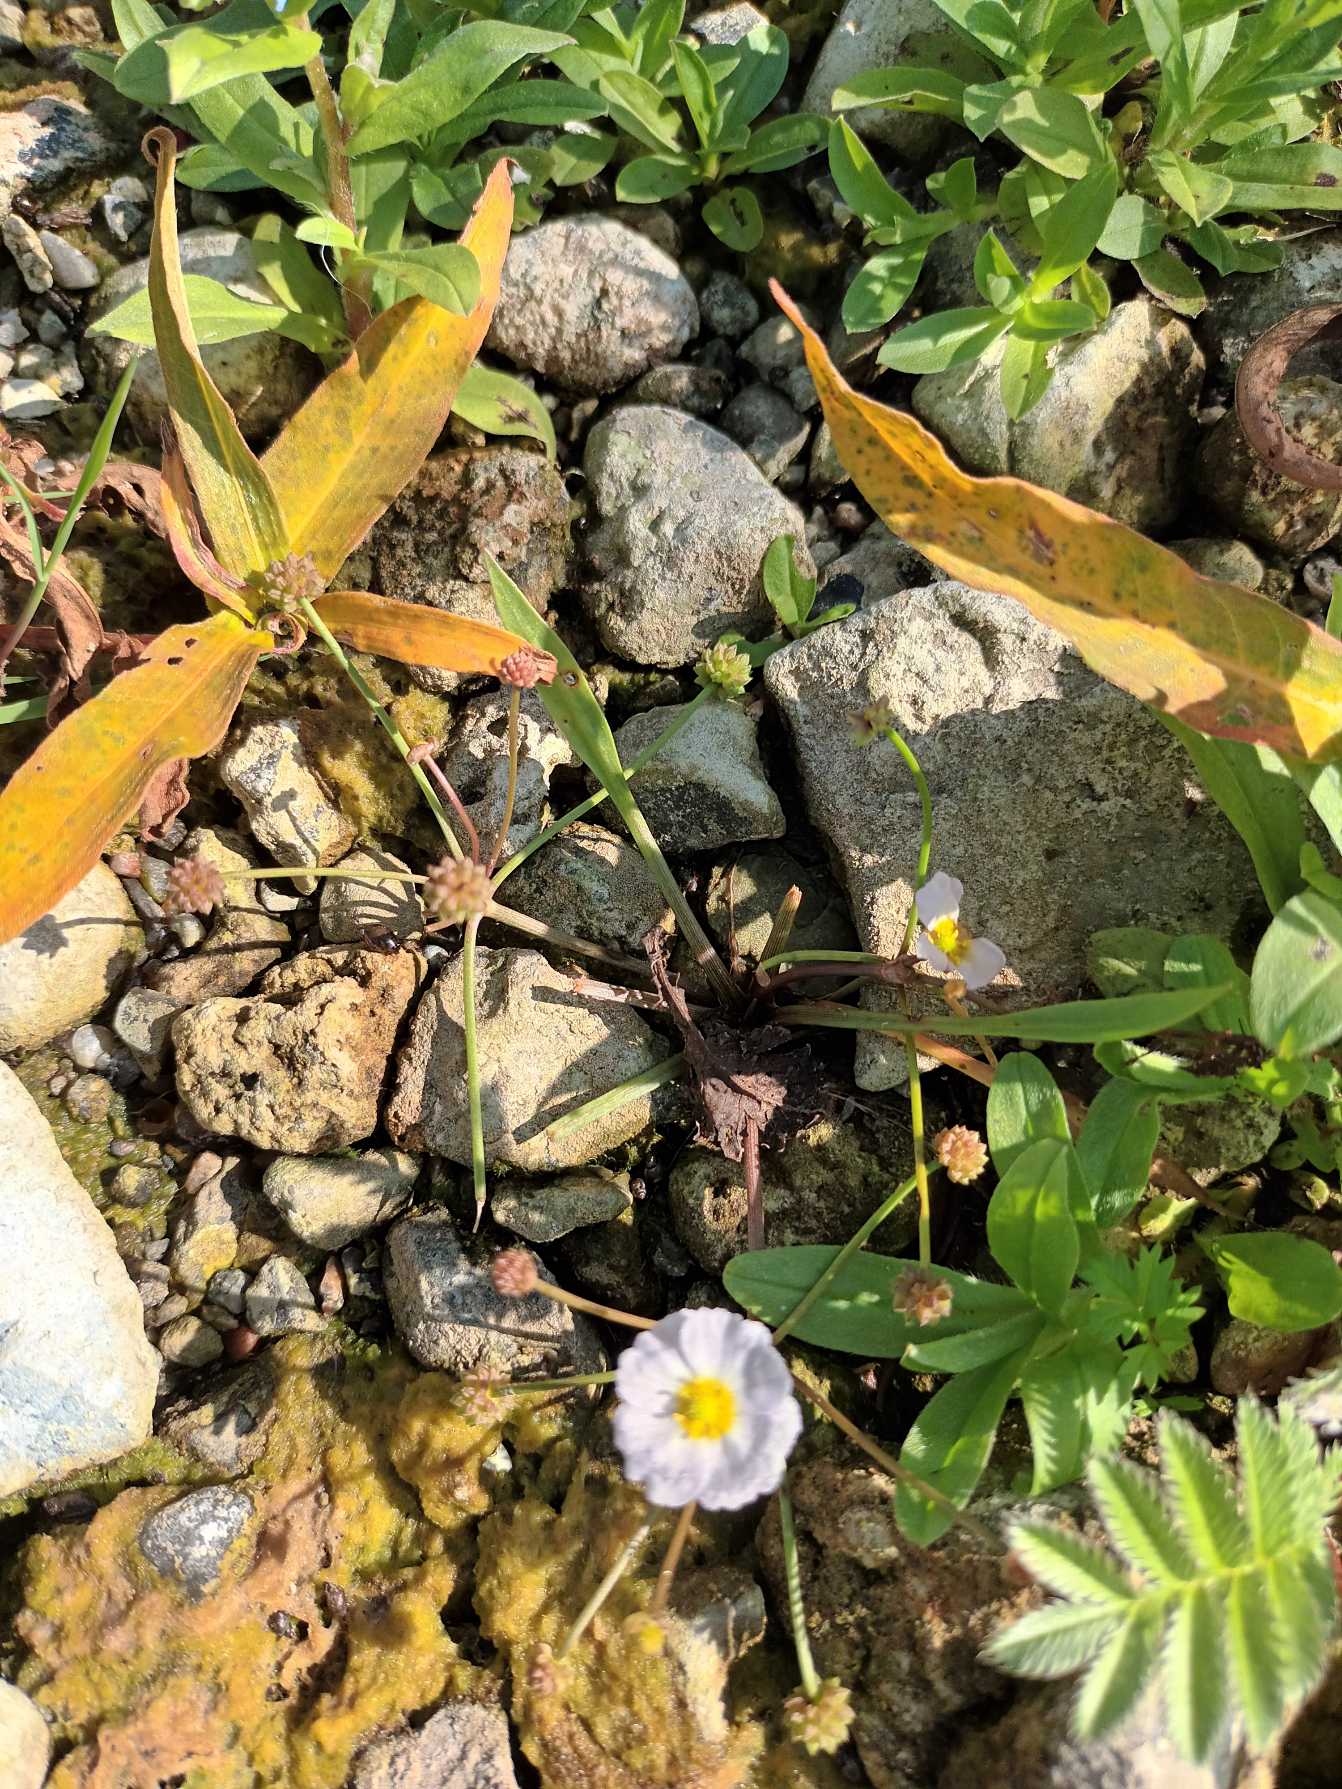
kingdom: Plantae
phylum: Tracheophyta
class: Liliopsida
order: Alismatales
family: Alismataceae
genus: Baldellia
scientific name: Baldellia ranunculoides
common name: Søpryd
